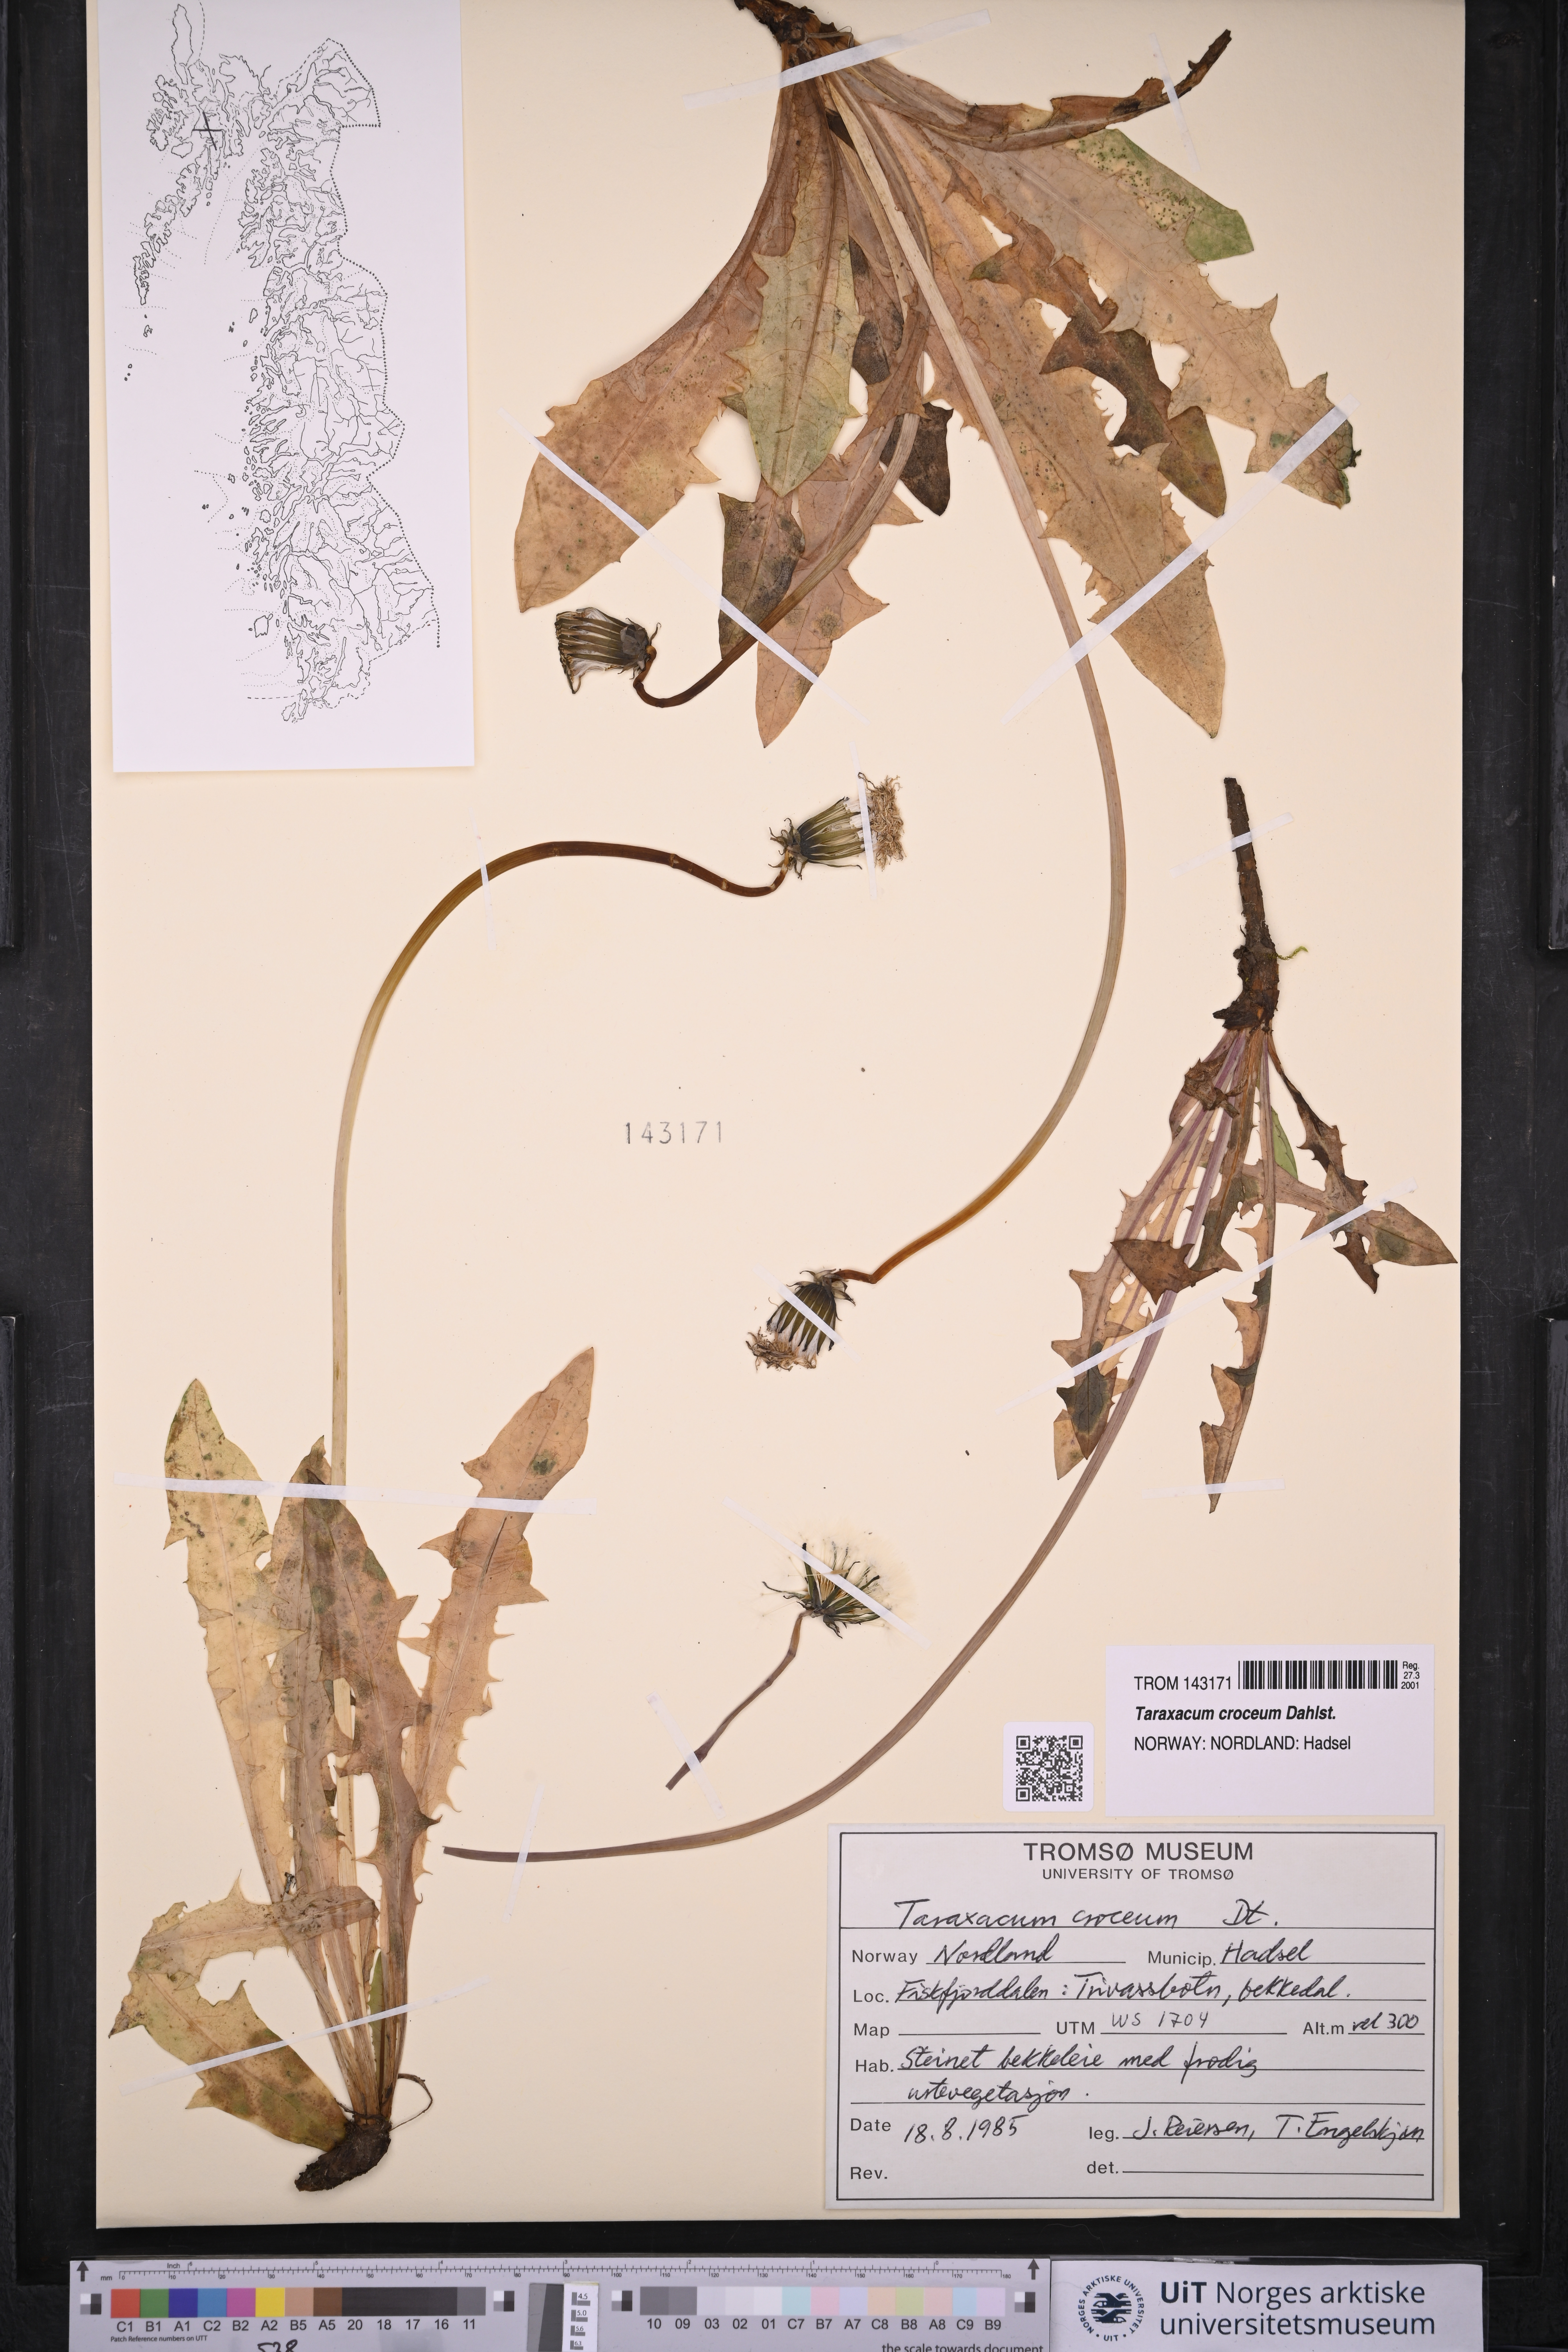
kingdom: Plantae
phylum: Tracheophyta
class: Magnoliopsida
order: Asterales
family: Asteraceae
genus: Taraxacum
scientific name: Taraxacum croceum
